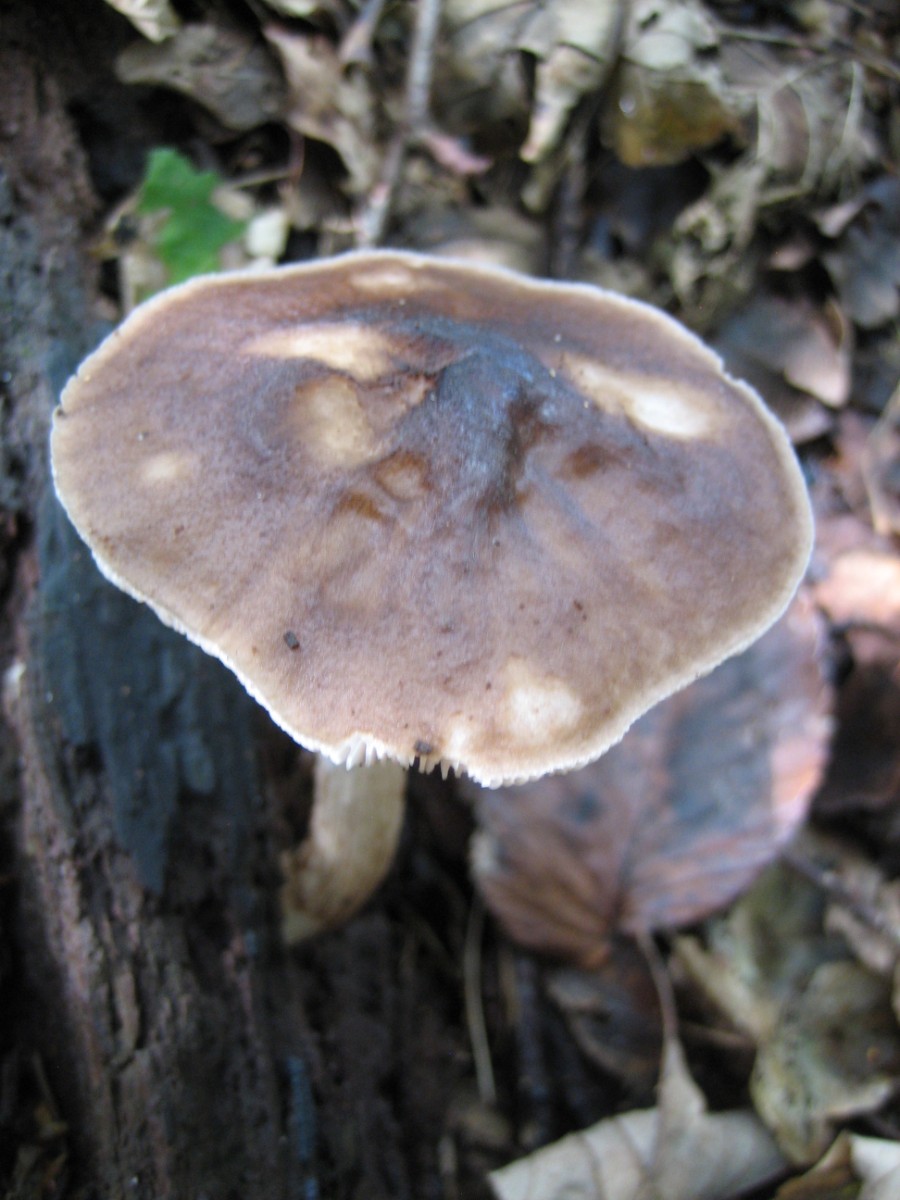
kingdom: Fungi
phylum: Basidiomycota
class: Agaricomycetes
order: Agaricales
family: Pluteaceae
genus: Pluteus
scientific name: Pluteus cervinus
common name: sodfarvet skærmhat
